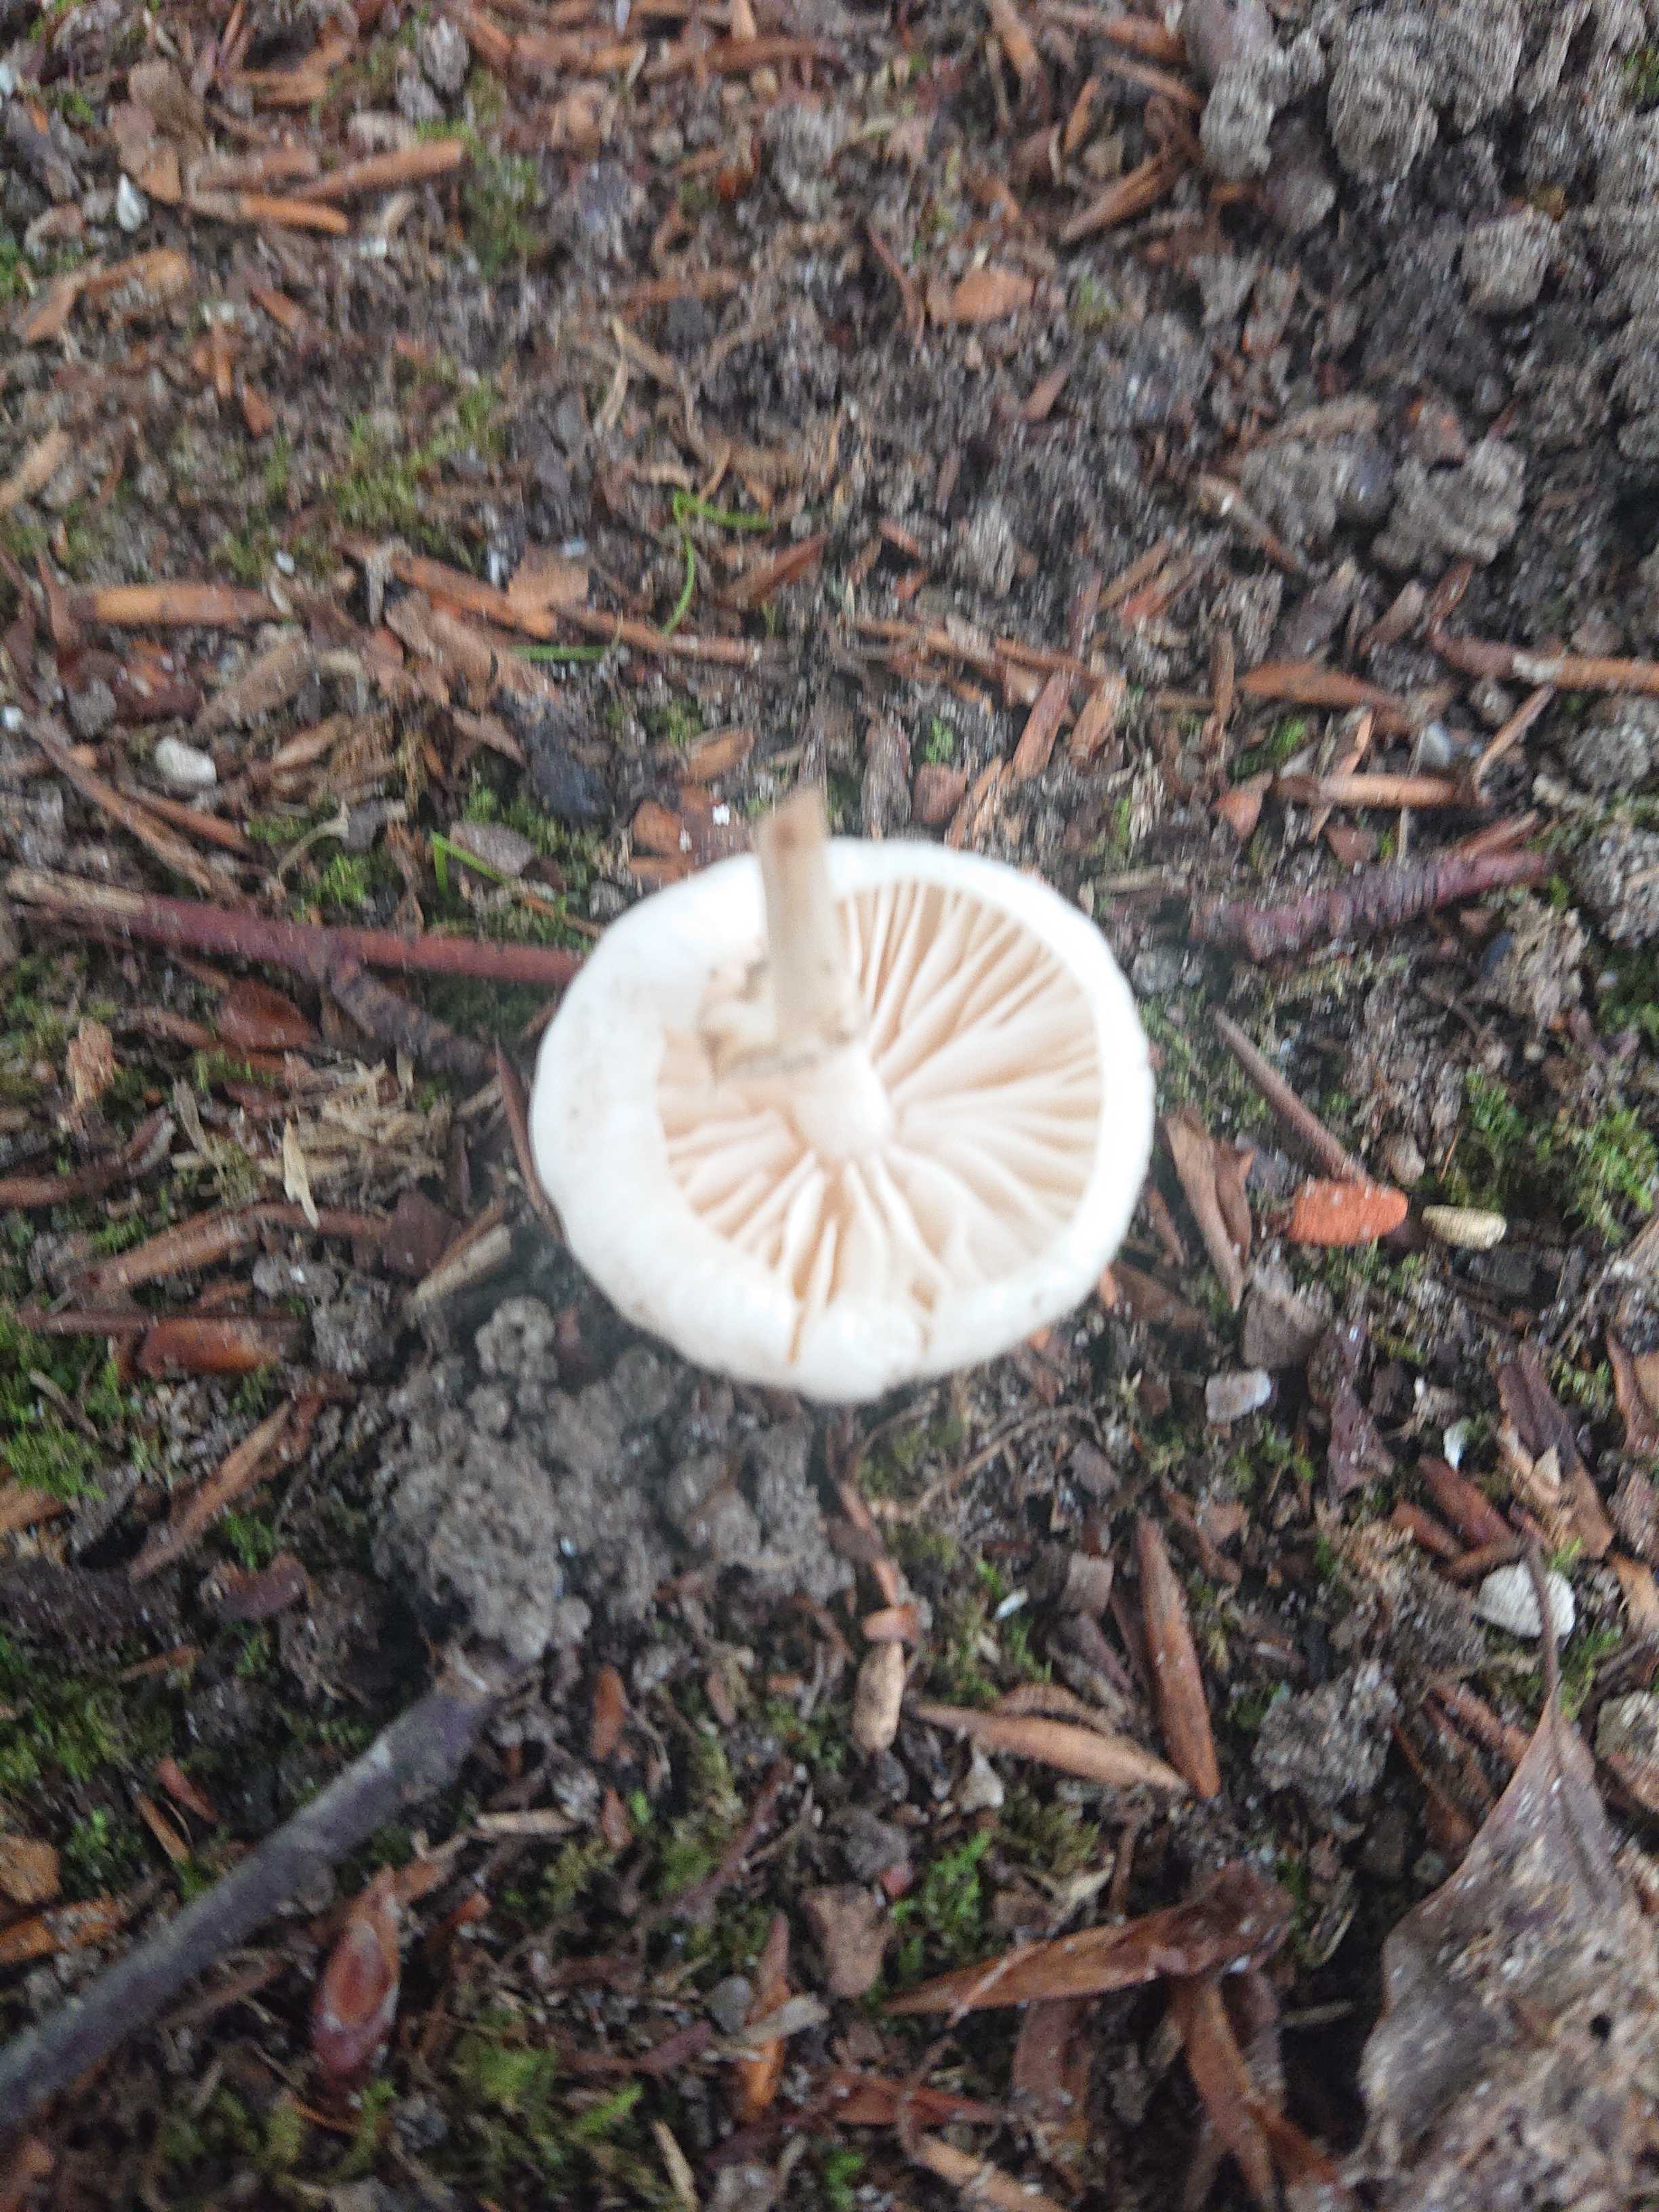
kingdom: Fungi
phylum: Basidiomycota
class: Agaricomycetes
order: Agaricales
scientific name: Agaricales
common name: champignonordenen
